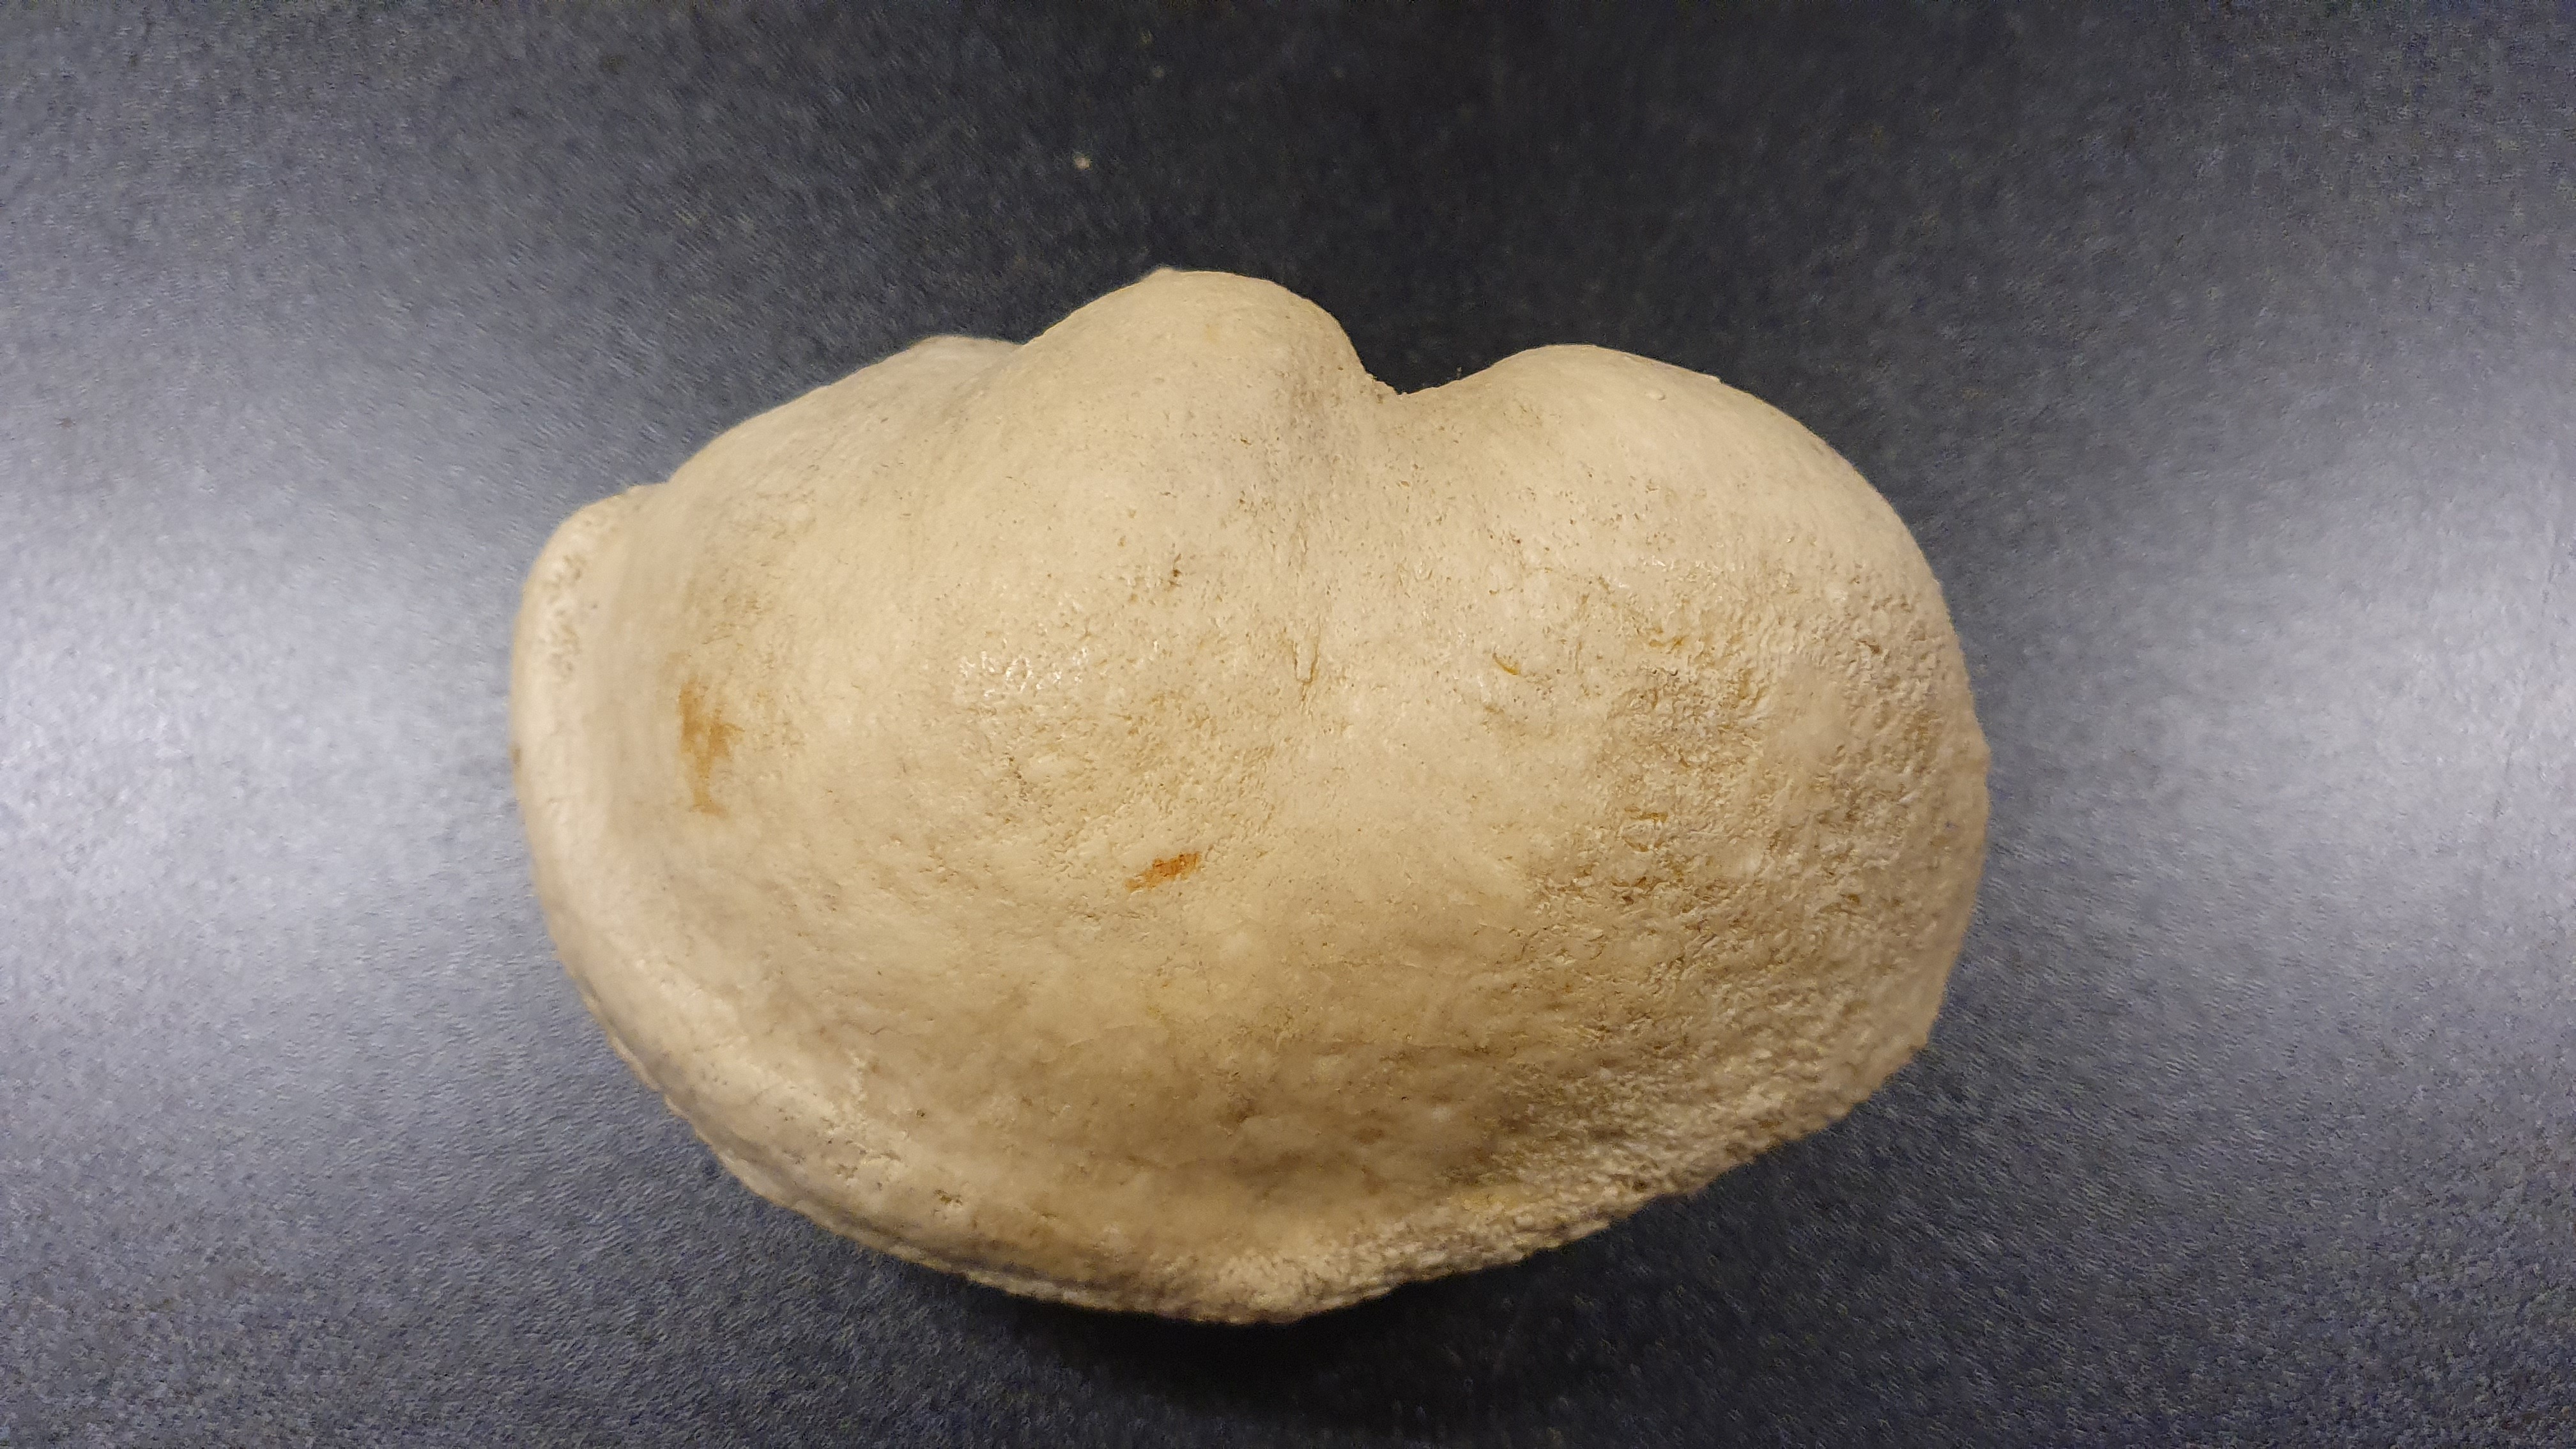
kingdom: Animalia
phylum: Chordata
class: Mammalia
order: Cetacea
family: Balaenopteridae
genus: Balaenoptera
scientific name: Balaenoptera physalus
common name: Fin whale
